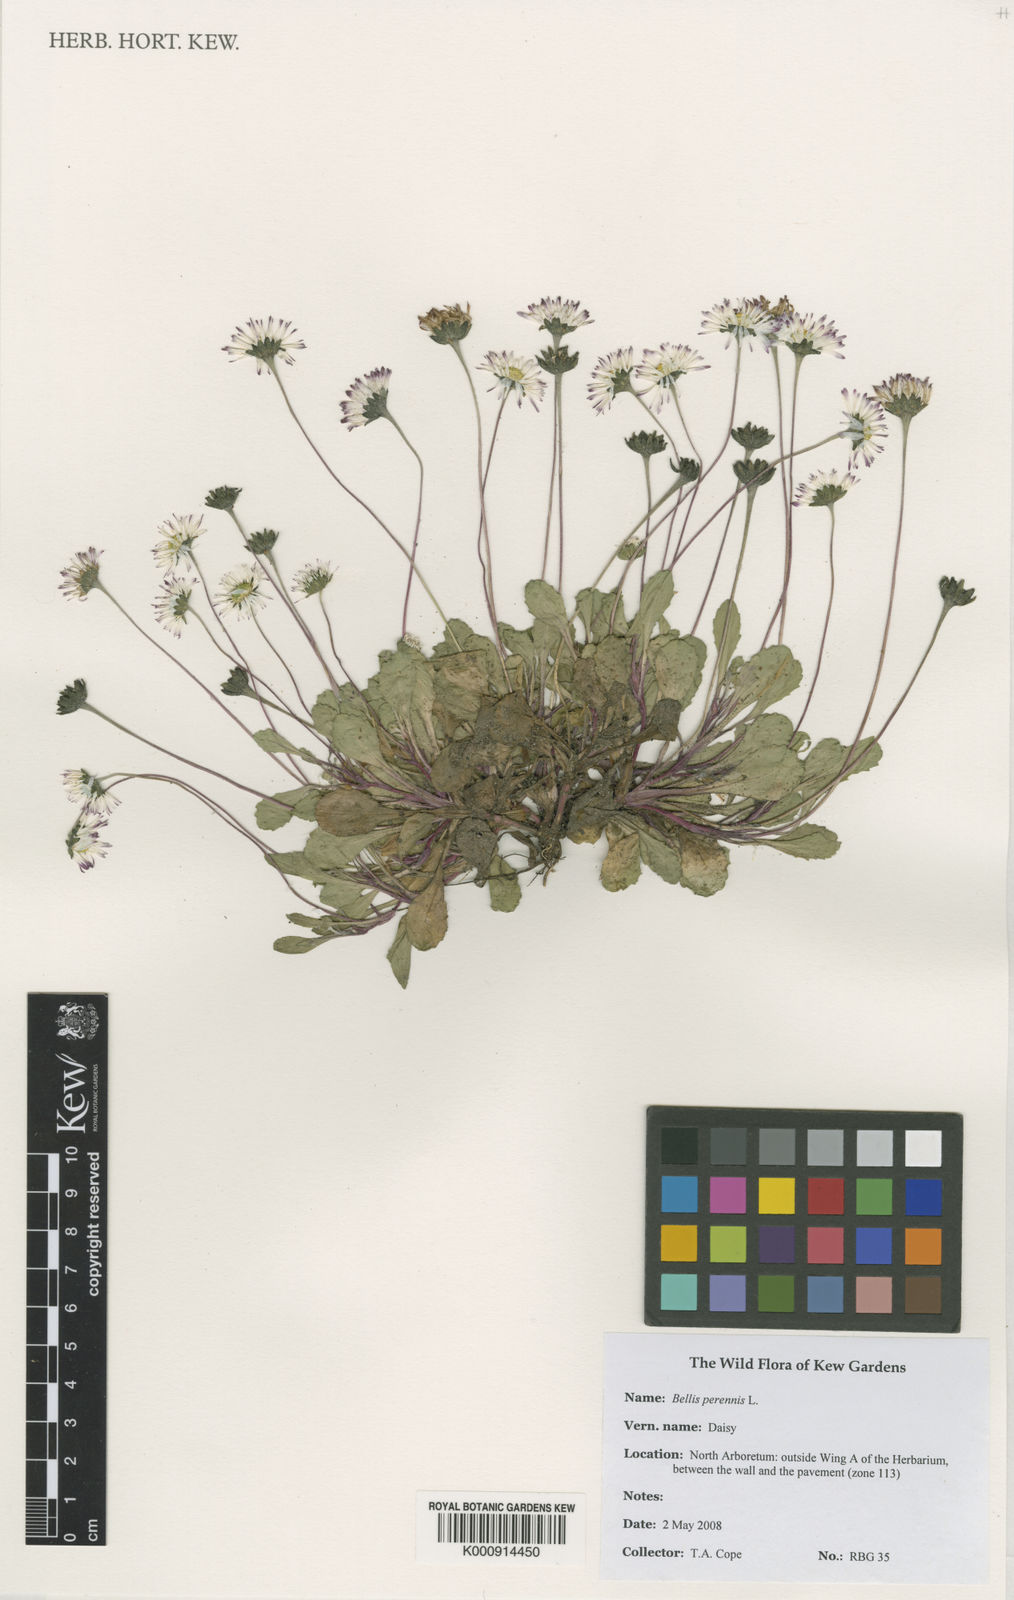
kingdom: Plantae
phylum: Tracheophyta
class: Magnoliopsida
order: Asterales
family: Asteraceae
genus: Bellis
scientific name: Bellis perennis
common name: Lawndaisy
